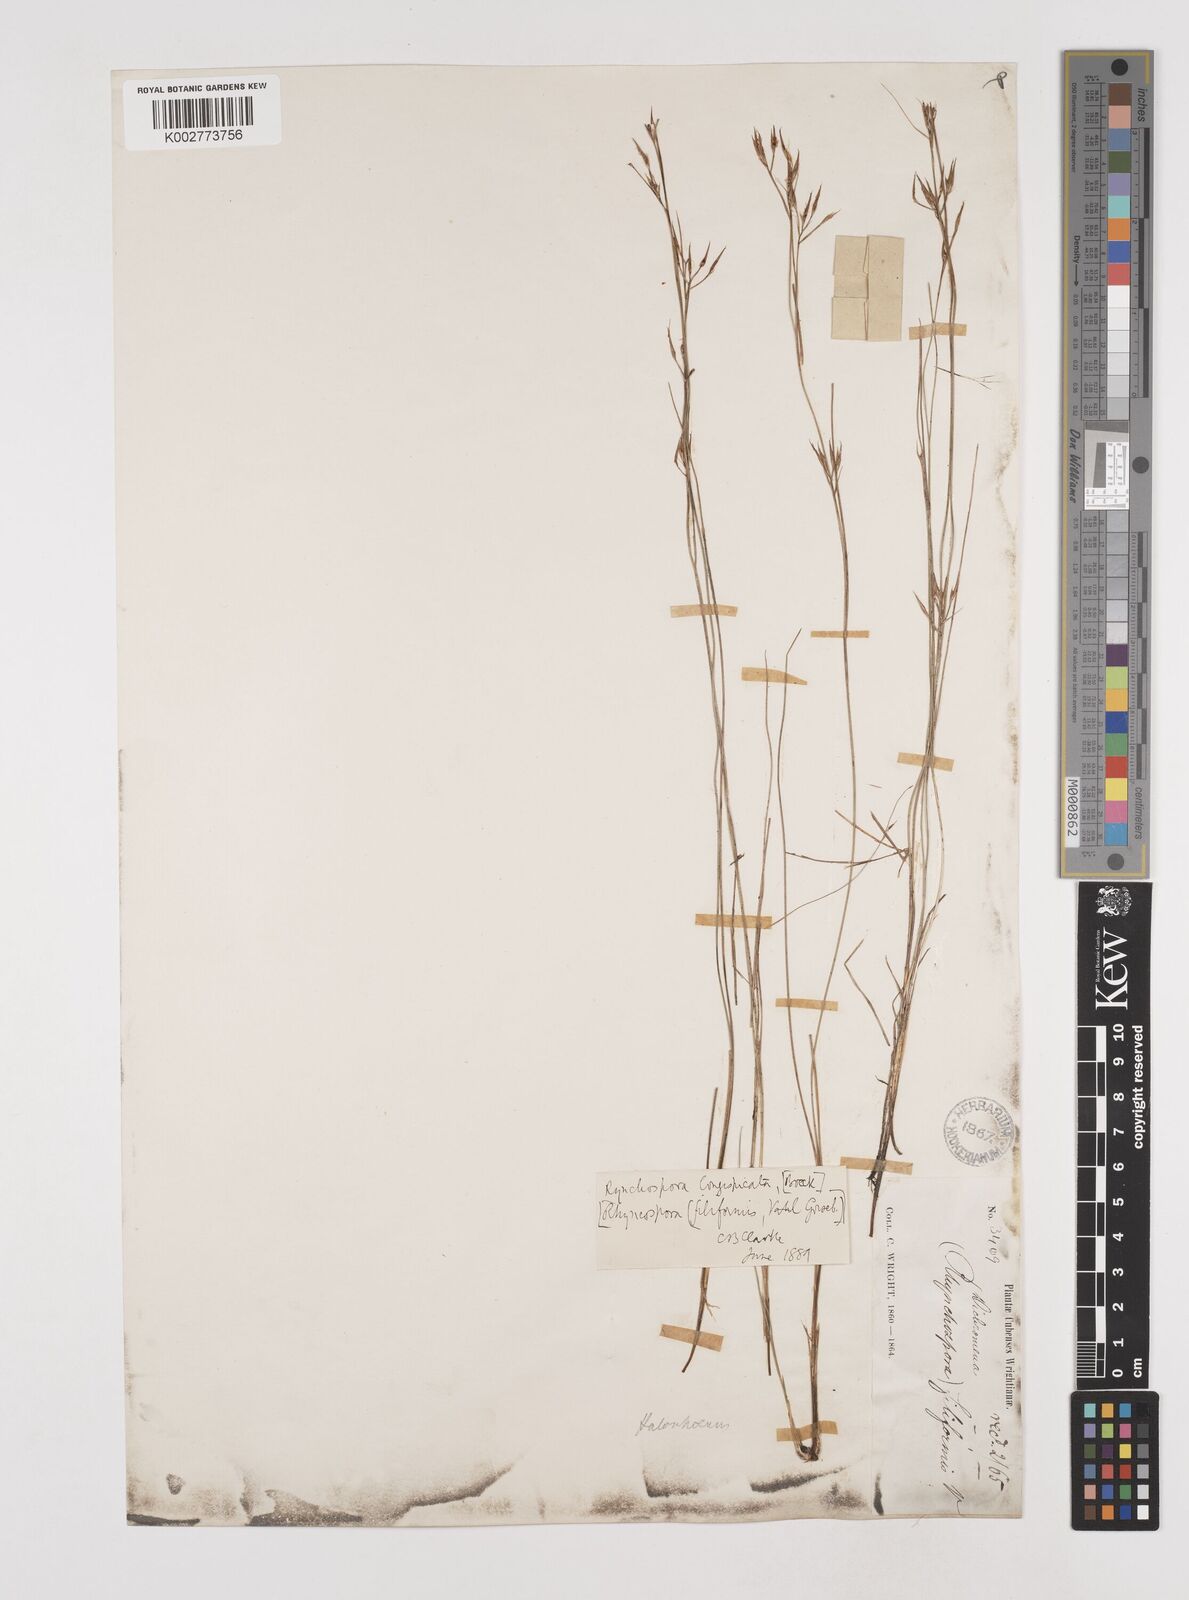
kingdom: Plantae
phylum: Tracheophyta
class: Liliopsida
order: Poales
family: Cyperaceae
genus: Rhynchospora
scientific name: Rhynchospora recognita
